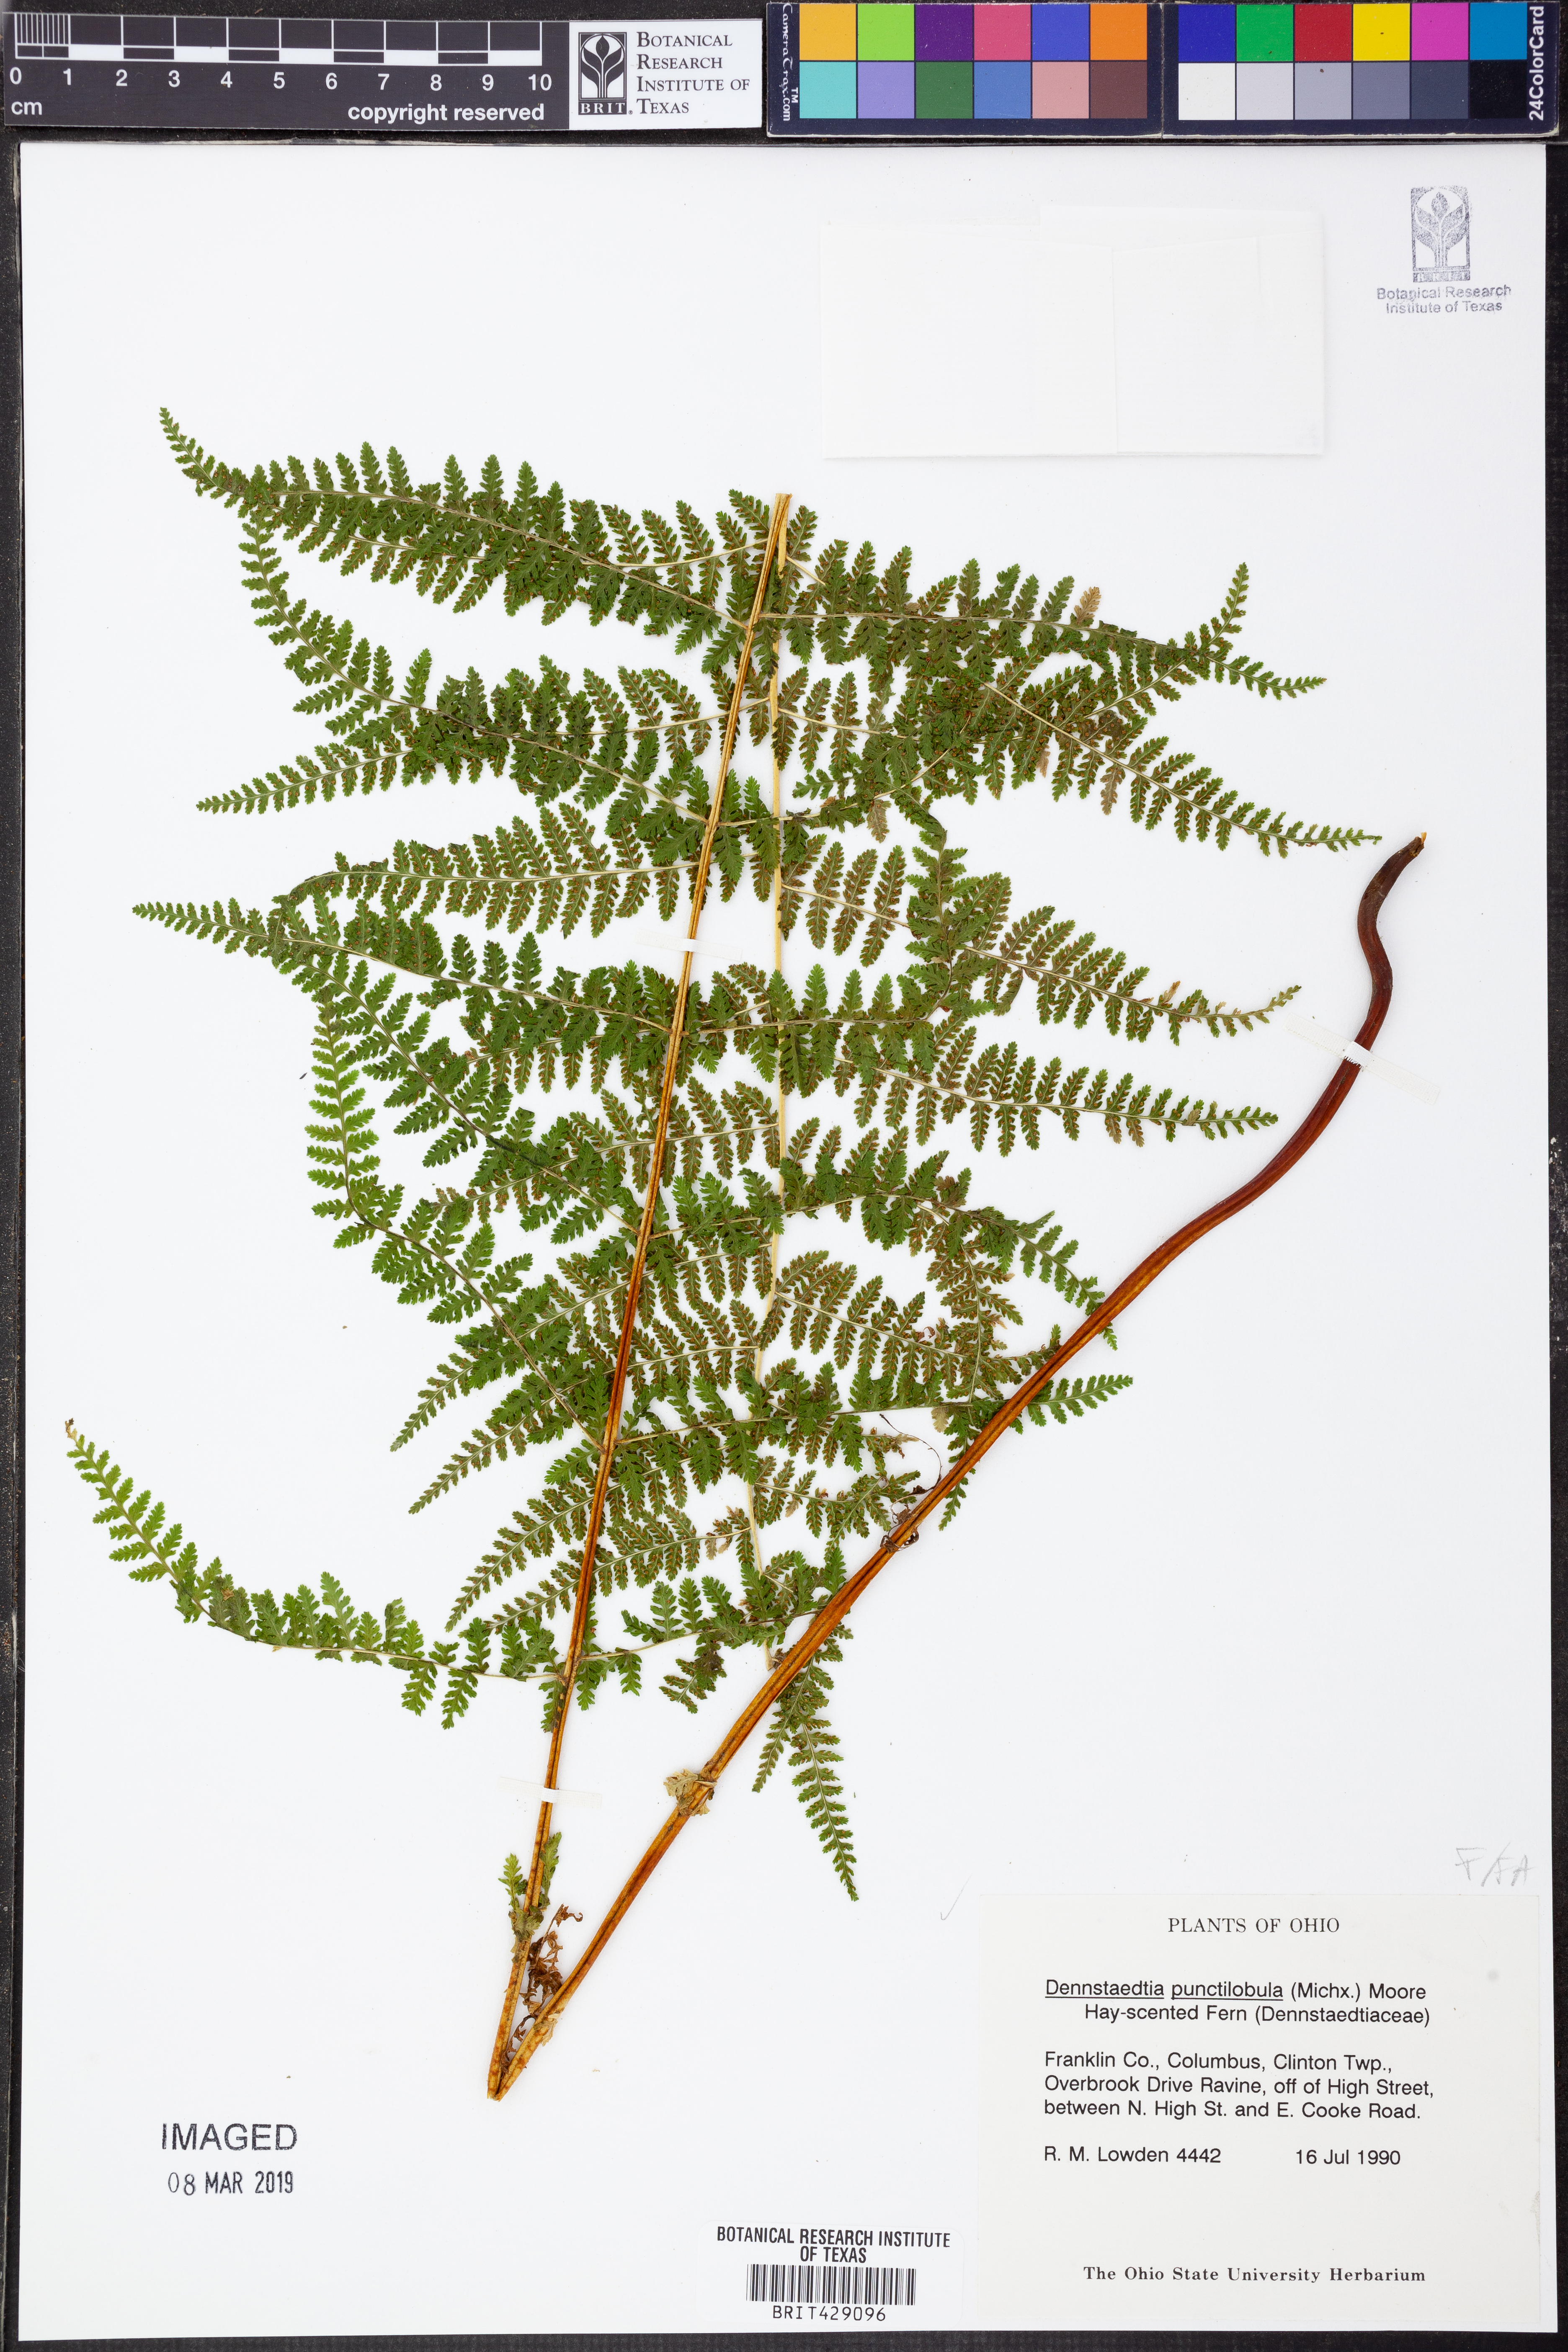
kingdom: Plantae
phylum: Tracheophyta
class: Polypodiopsida
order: Polypodiales
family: Dennstaedtiaceae
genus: Sitobolium
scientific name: Sitobolium punctilobum
